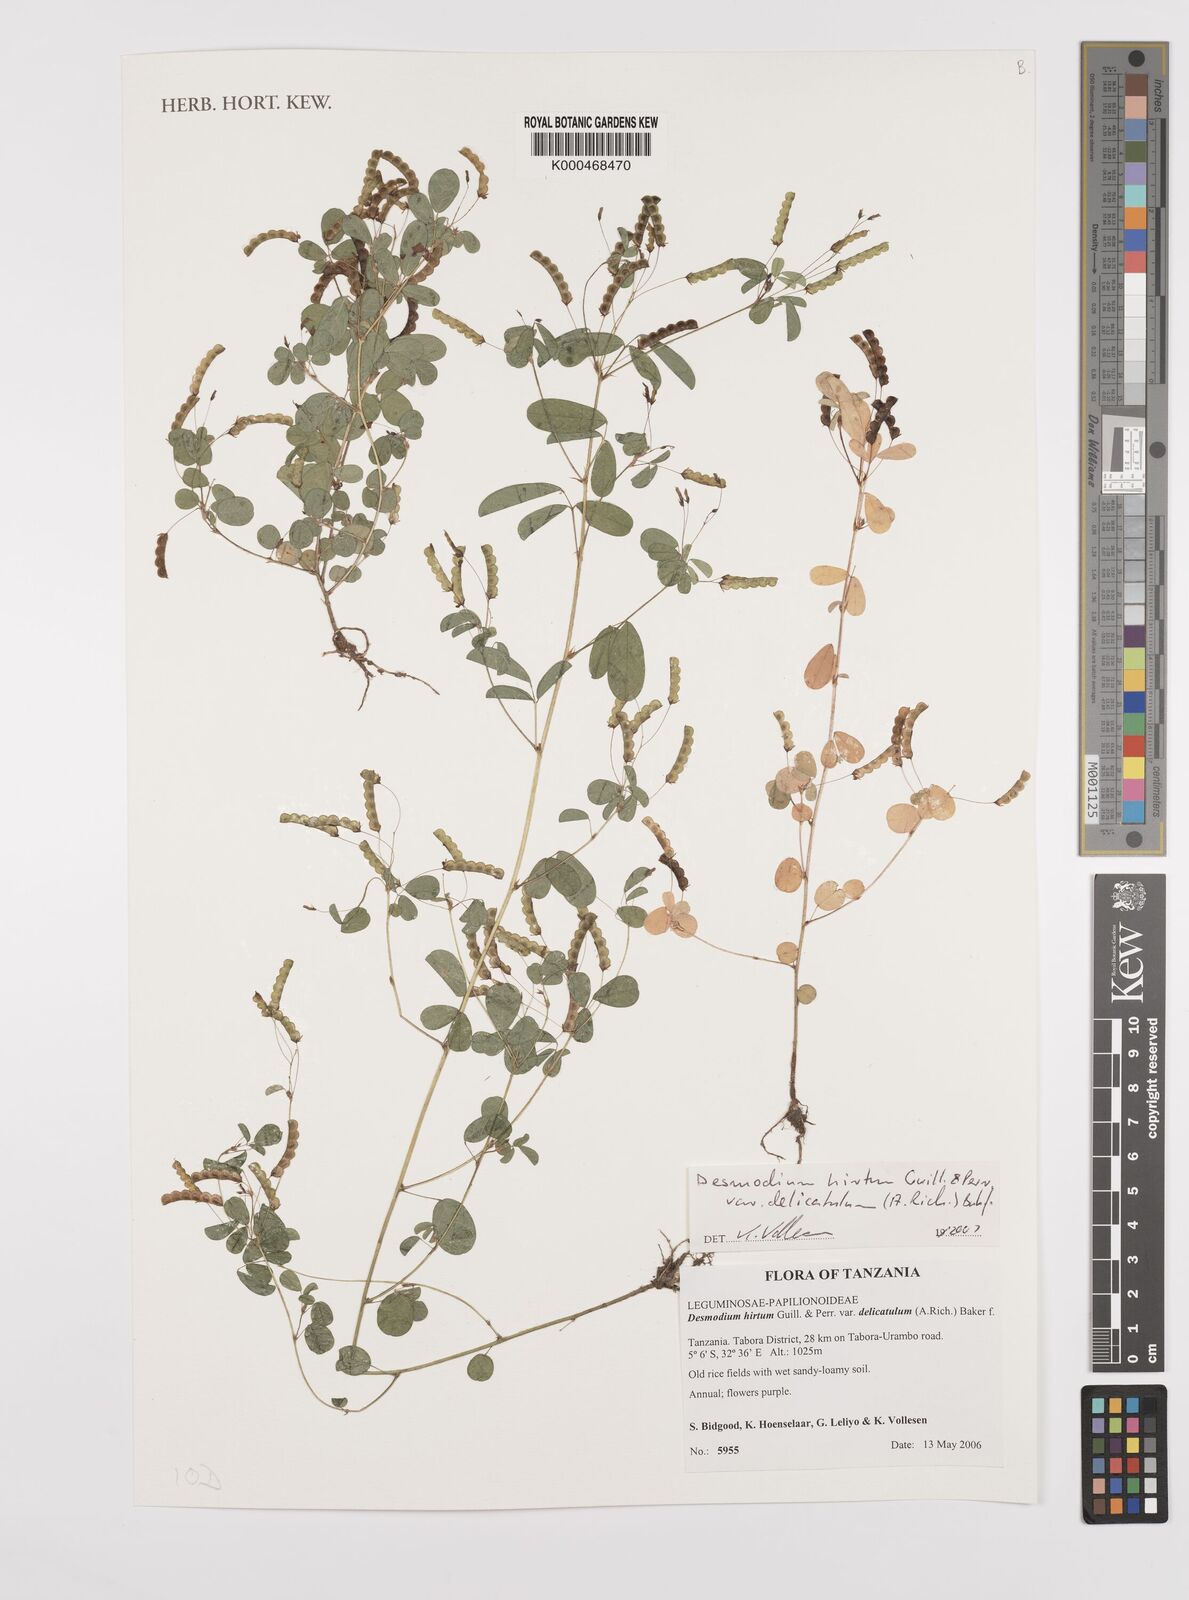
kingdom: Plantae
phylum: Tracheophyta
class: Magnoliopsida
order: Fabales
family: Fabaceae
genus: Grona
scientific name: Grona hirta
